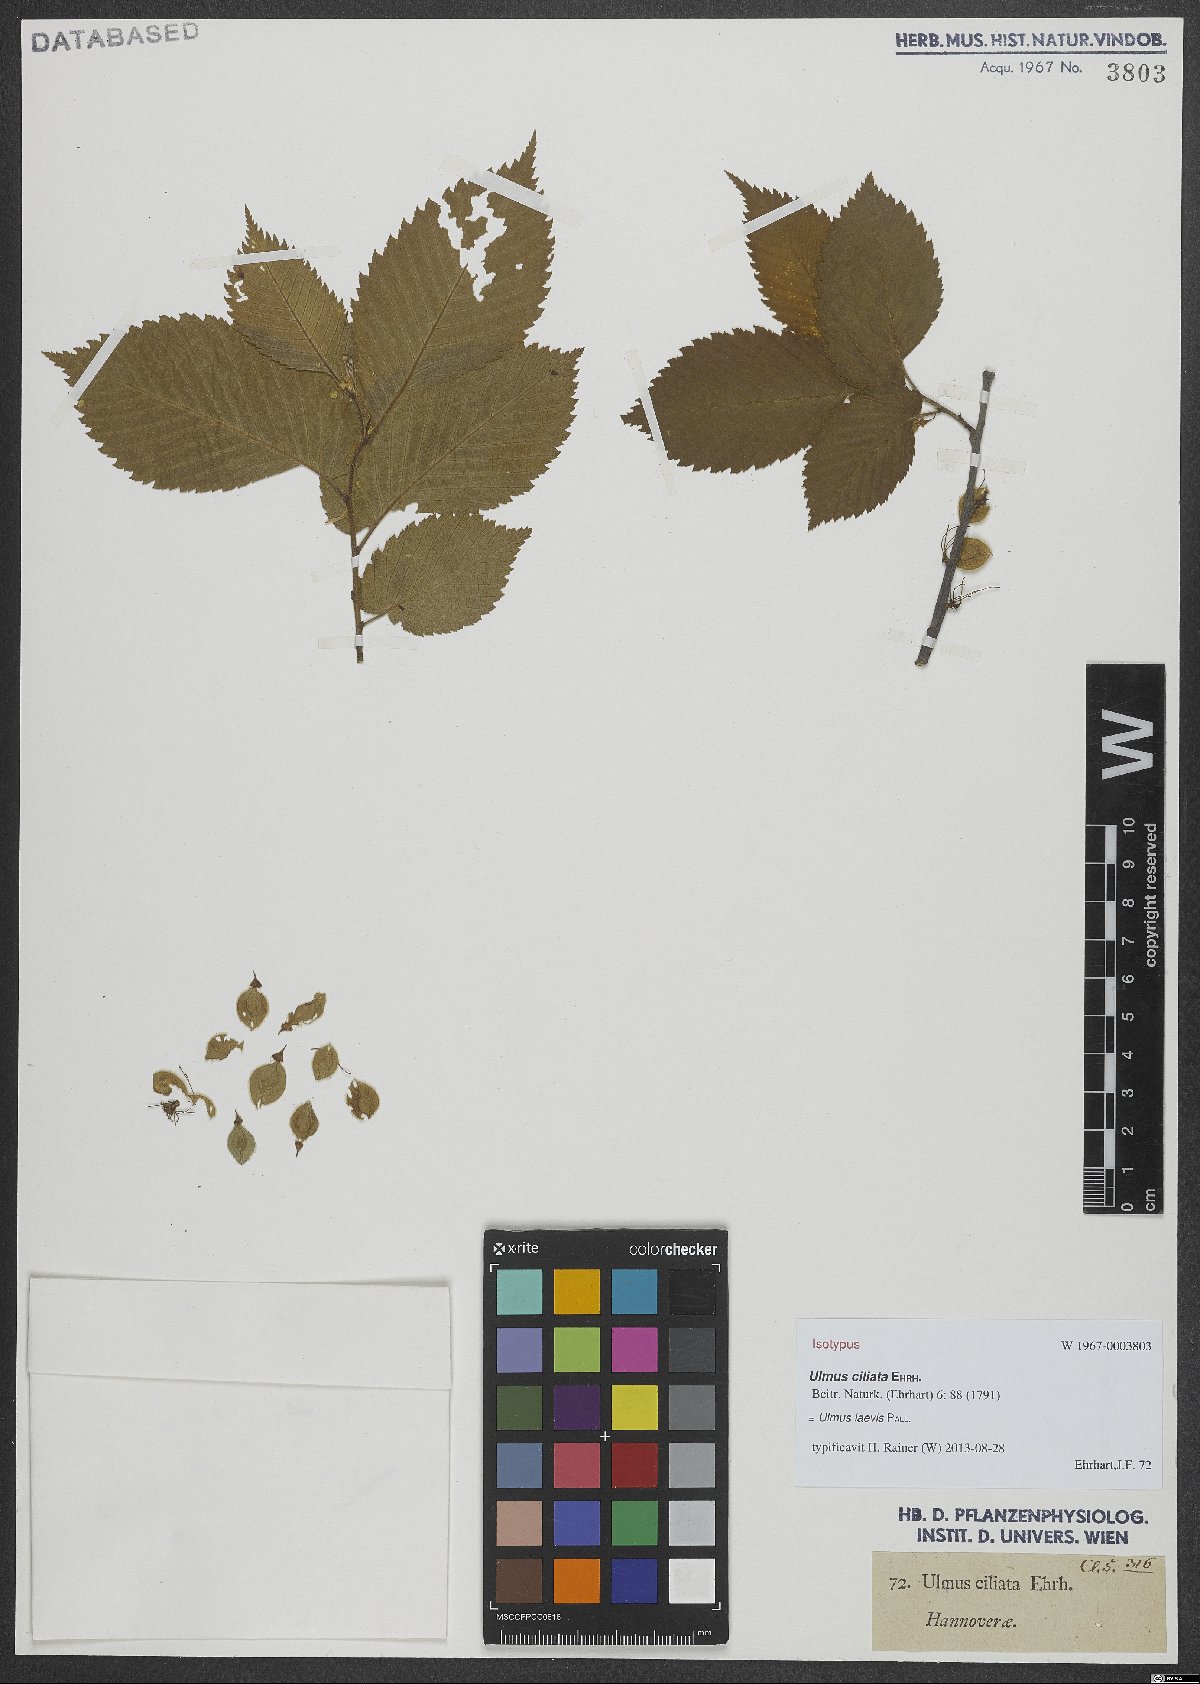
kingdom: Plantae
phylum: Tracheophyta
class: Magnoliopsida
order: Rosales
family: Ulmaceae
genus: Ulmus
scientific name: Ulmus laevis
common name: European white-elm
